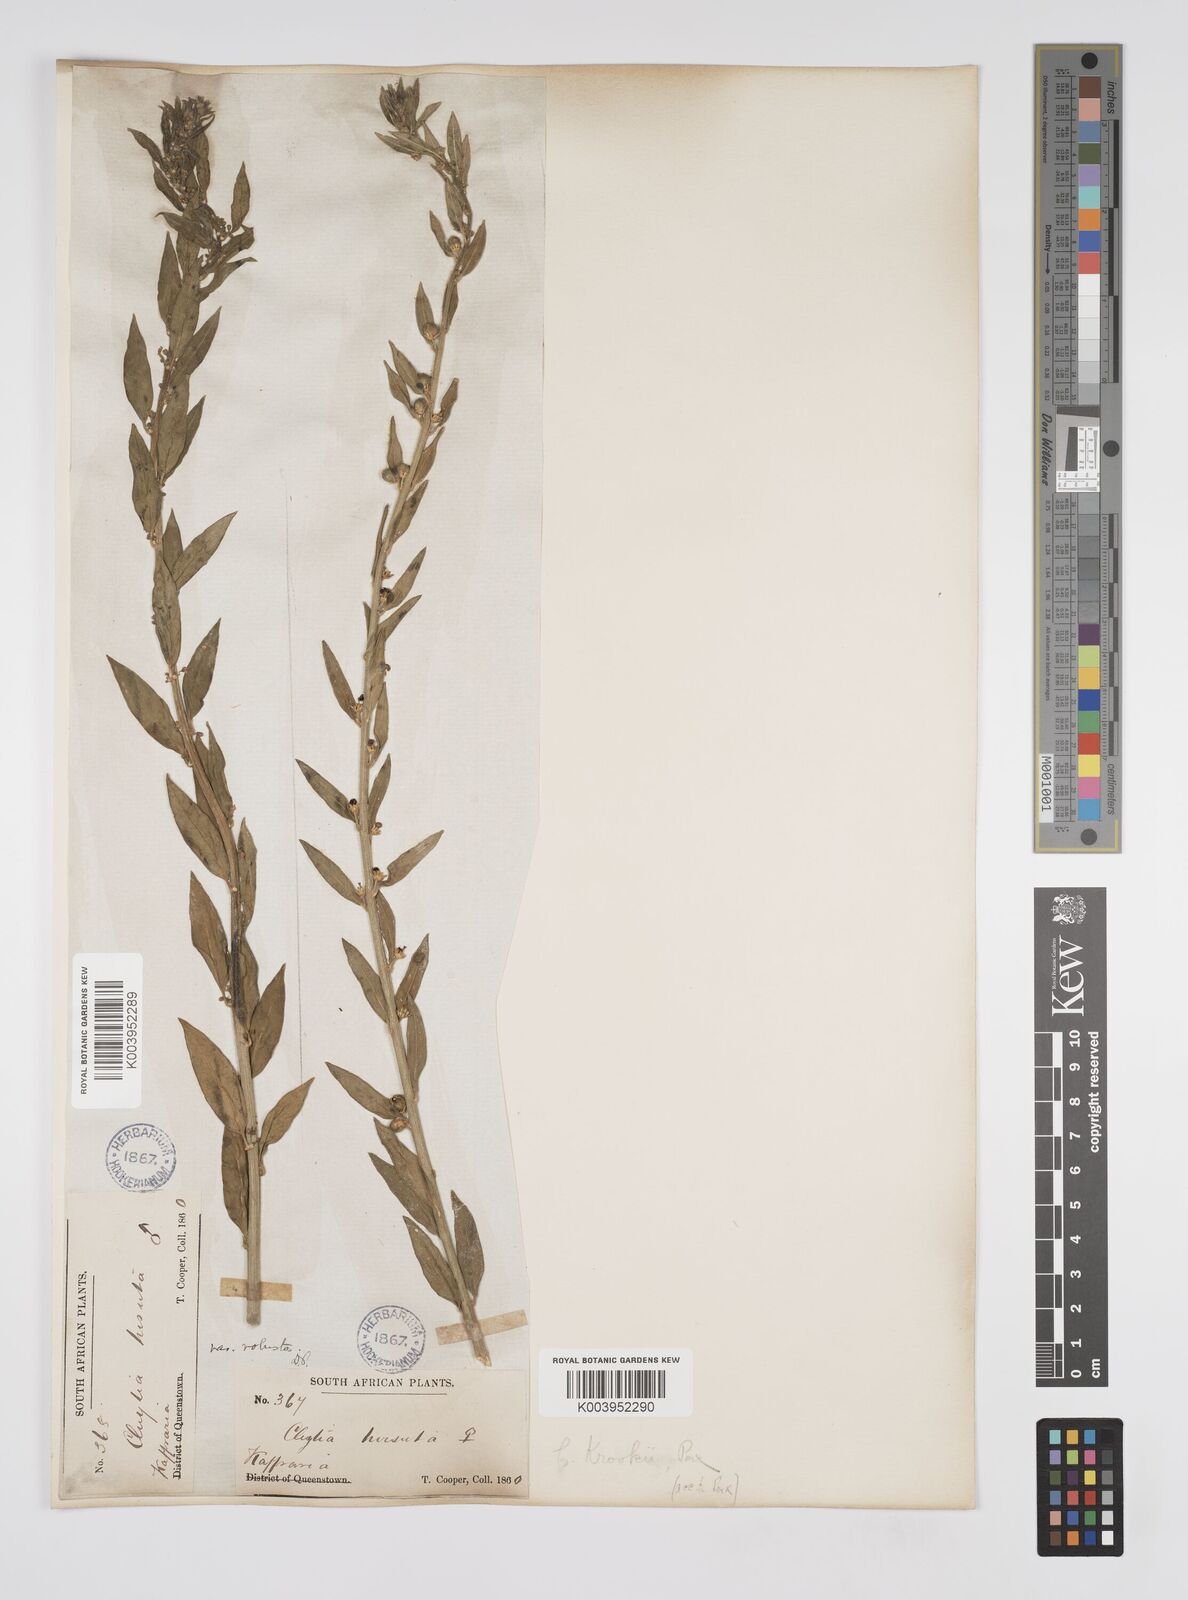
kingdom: Plantae
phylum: Tracheophyta
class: Magnoliopsida
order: Malpighiales
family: Peraceae
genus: Clutia
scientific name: Clutia hirsuta
